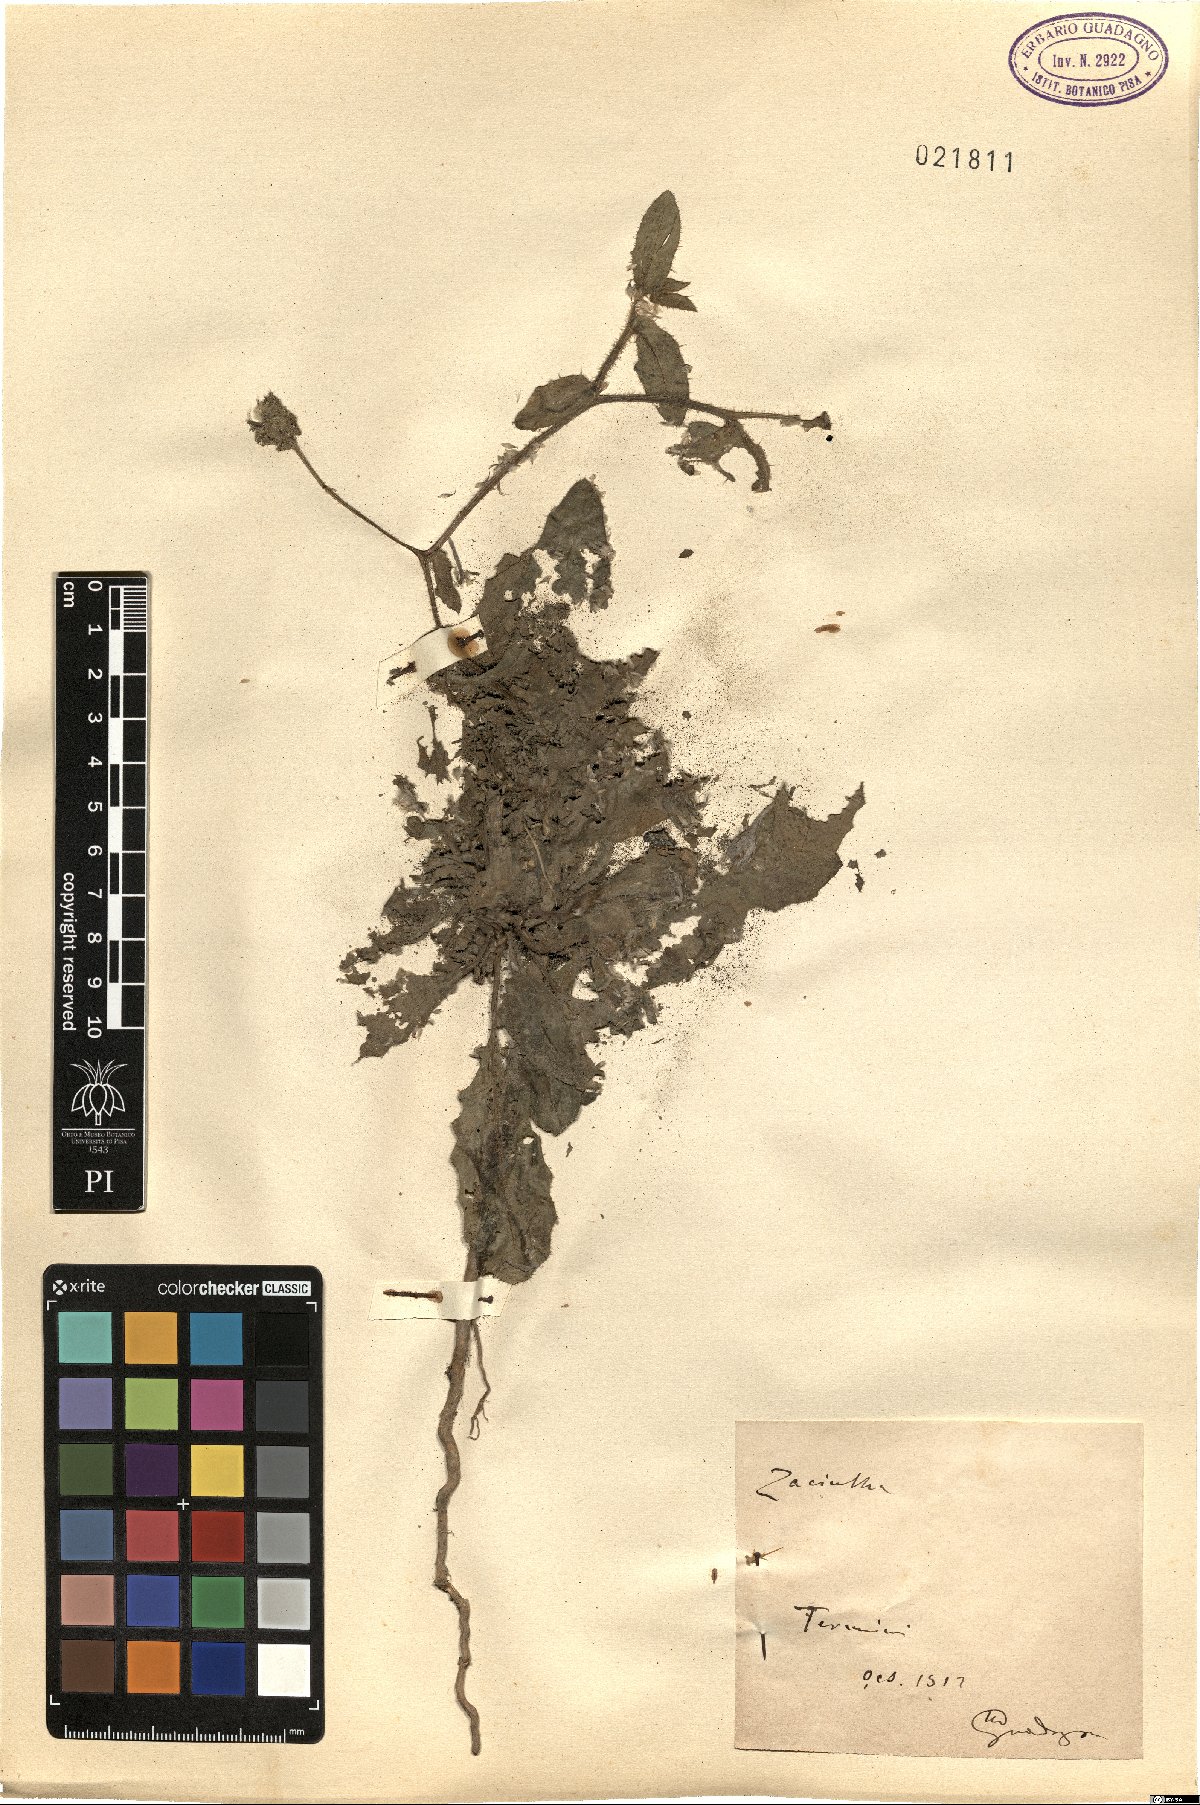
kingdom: Plantae
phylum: Tracheophyta
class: Magnoliopsida
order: Asterales
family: Asteraceae
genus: Crepis
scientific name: Crepis
